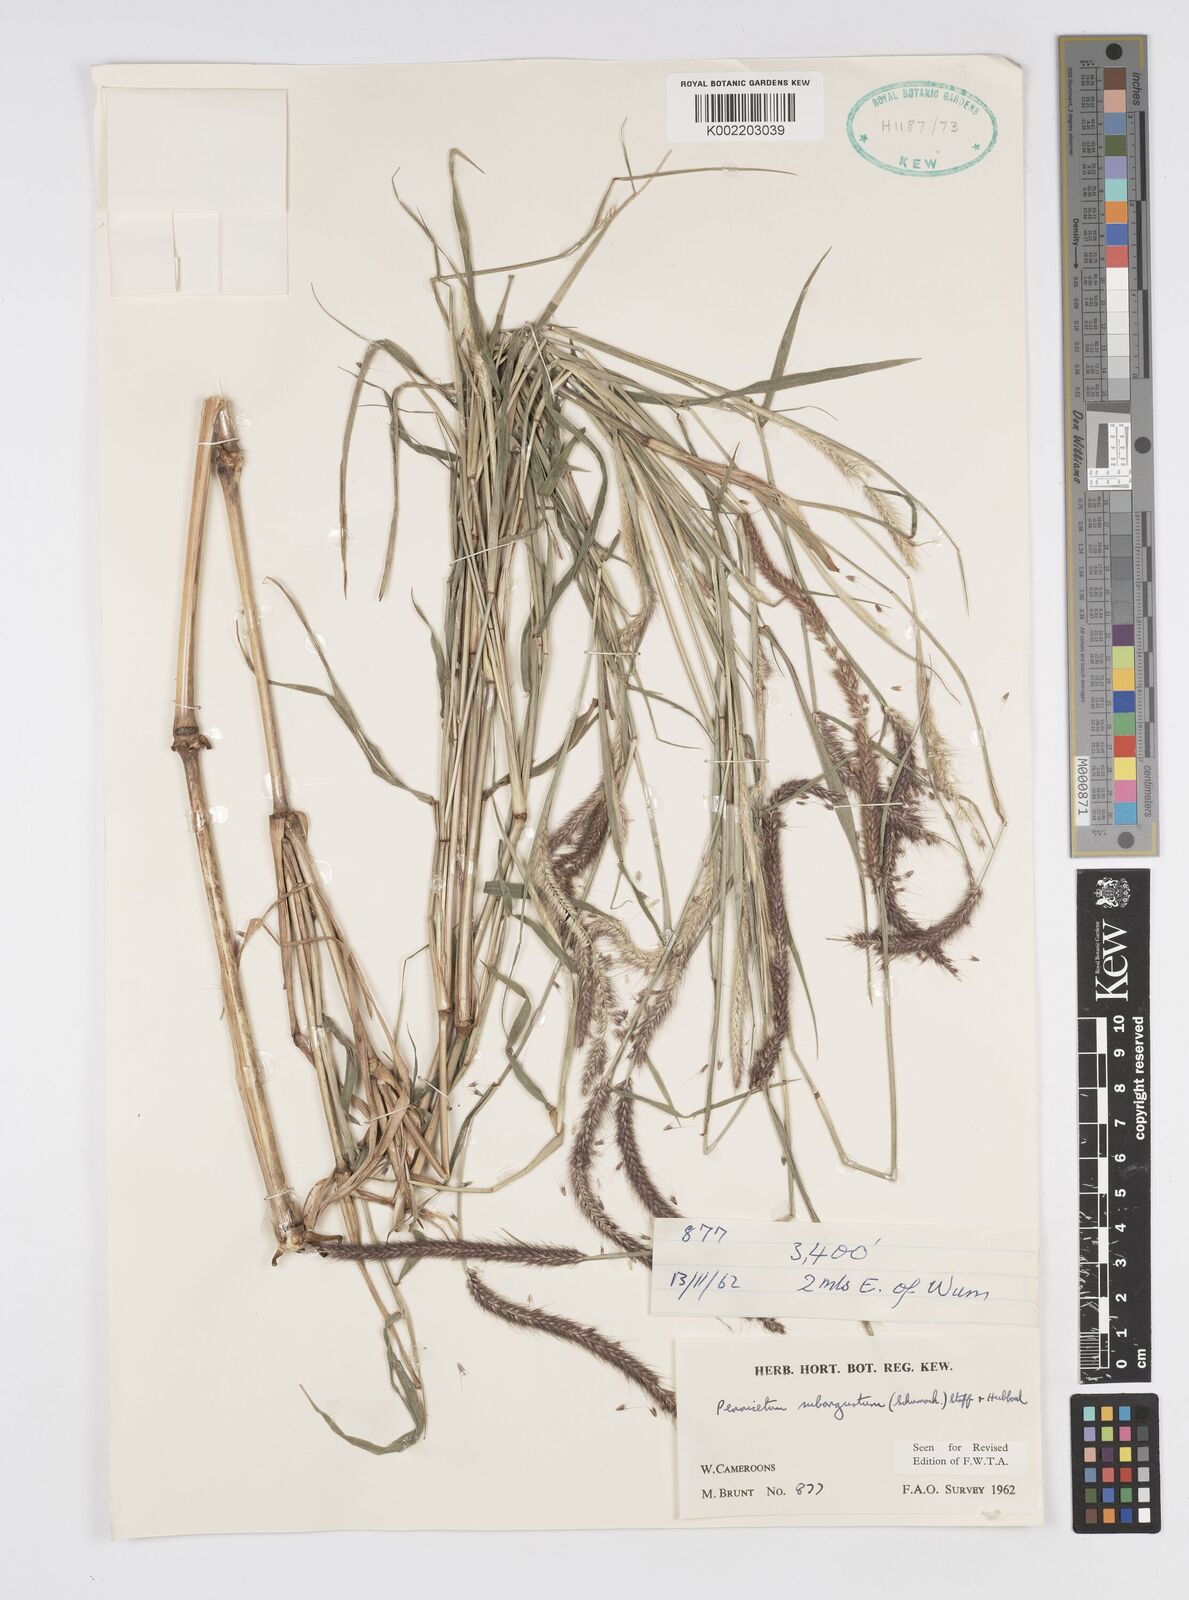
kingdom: Plantae
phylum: Tracheophyta
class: Liliopsida
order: Poales
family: Poaceae
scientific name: Poaceae
